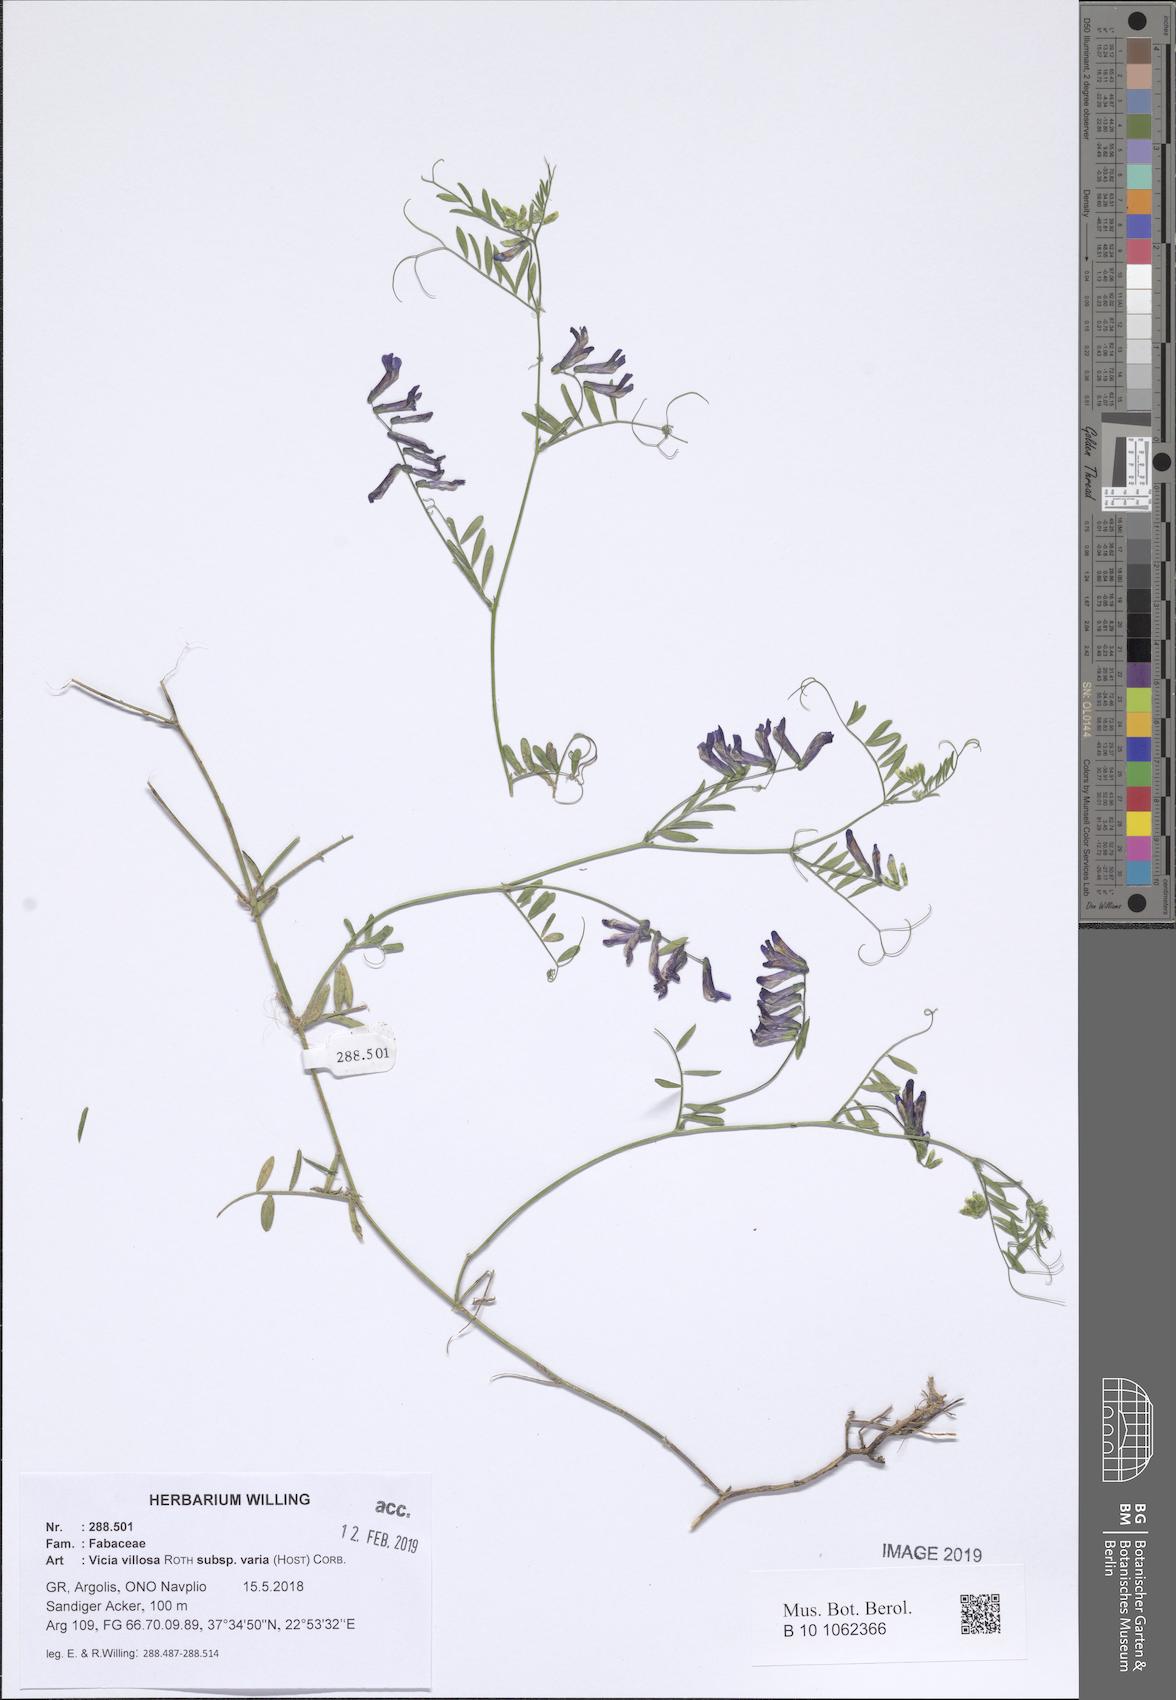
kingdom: Plantae
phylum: Tracheophyta
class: Magnoliopsida
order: Fabales
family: Fabaceae
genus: Vicia
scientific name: Vicia villosa
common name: Fodder vetch
